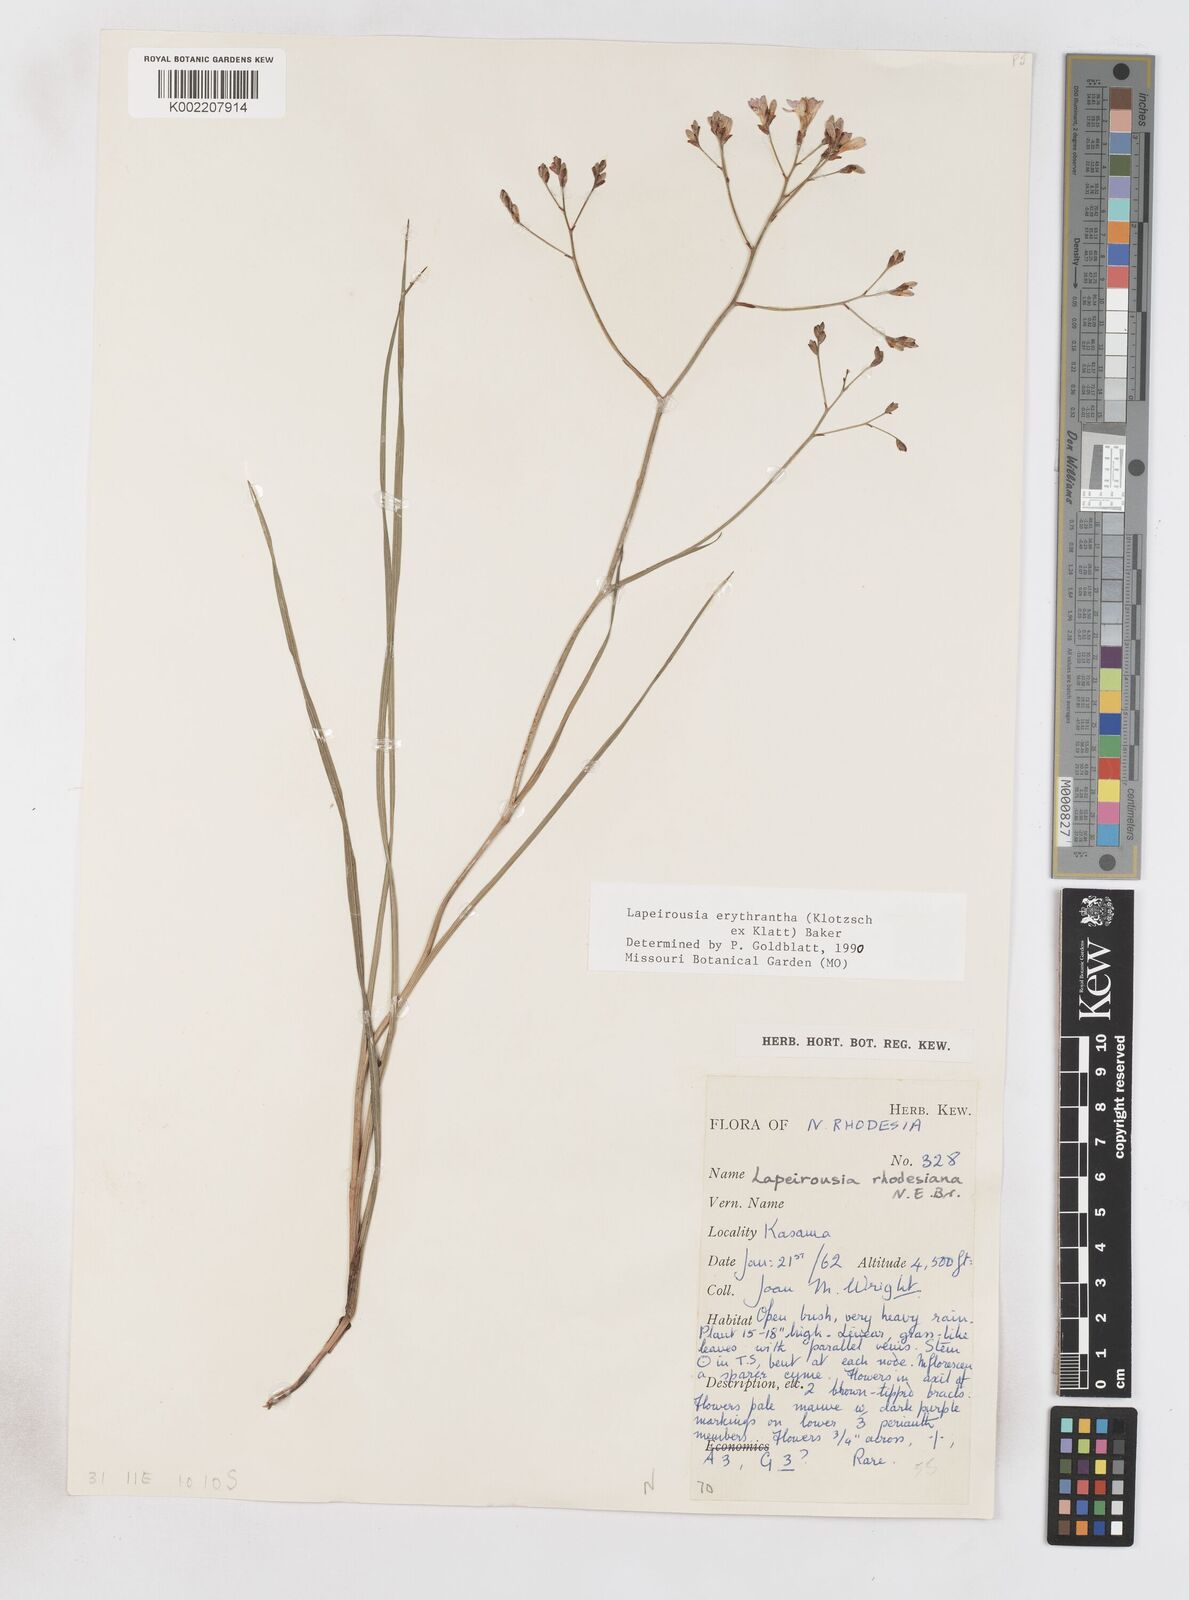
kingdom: Plantae
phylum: Tracheophyta
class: Liliopsida
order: Asparagales
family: Iridaceae
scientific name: Iridaceae
